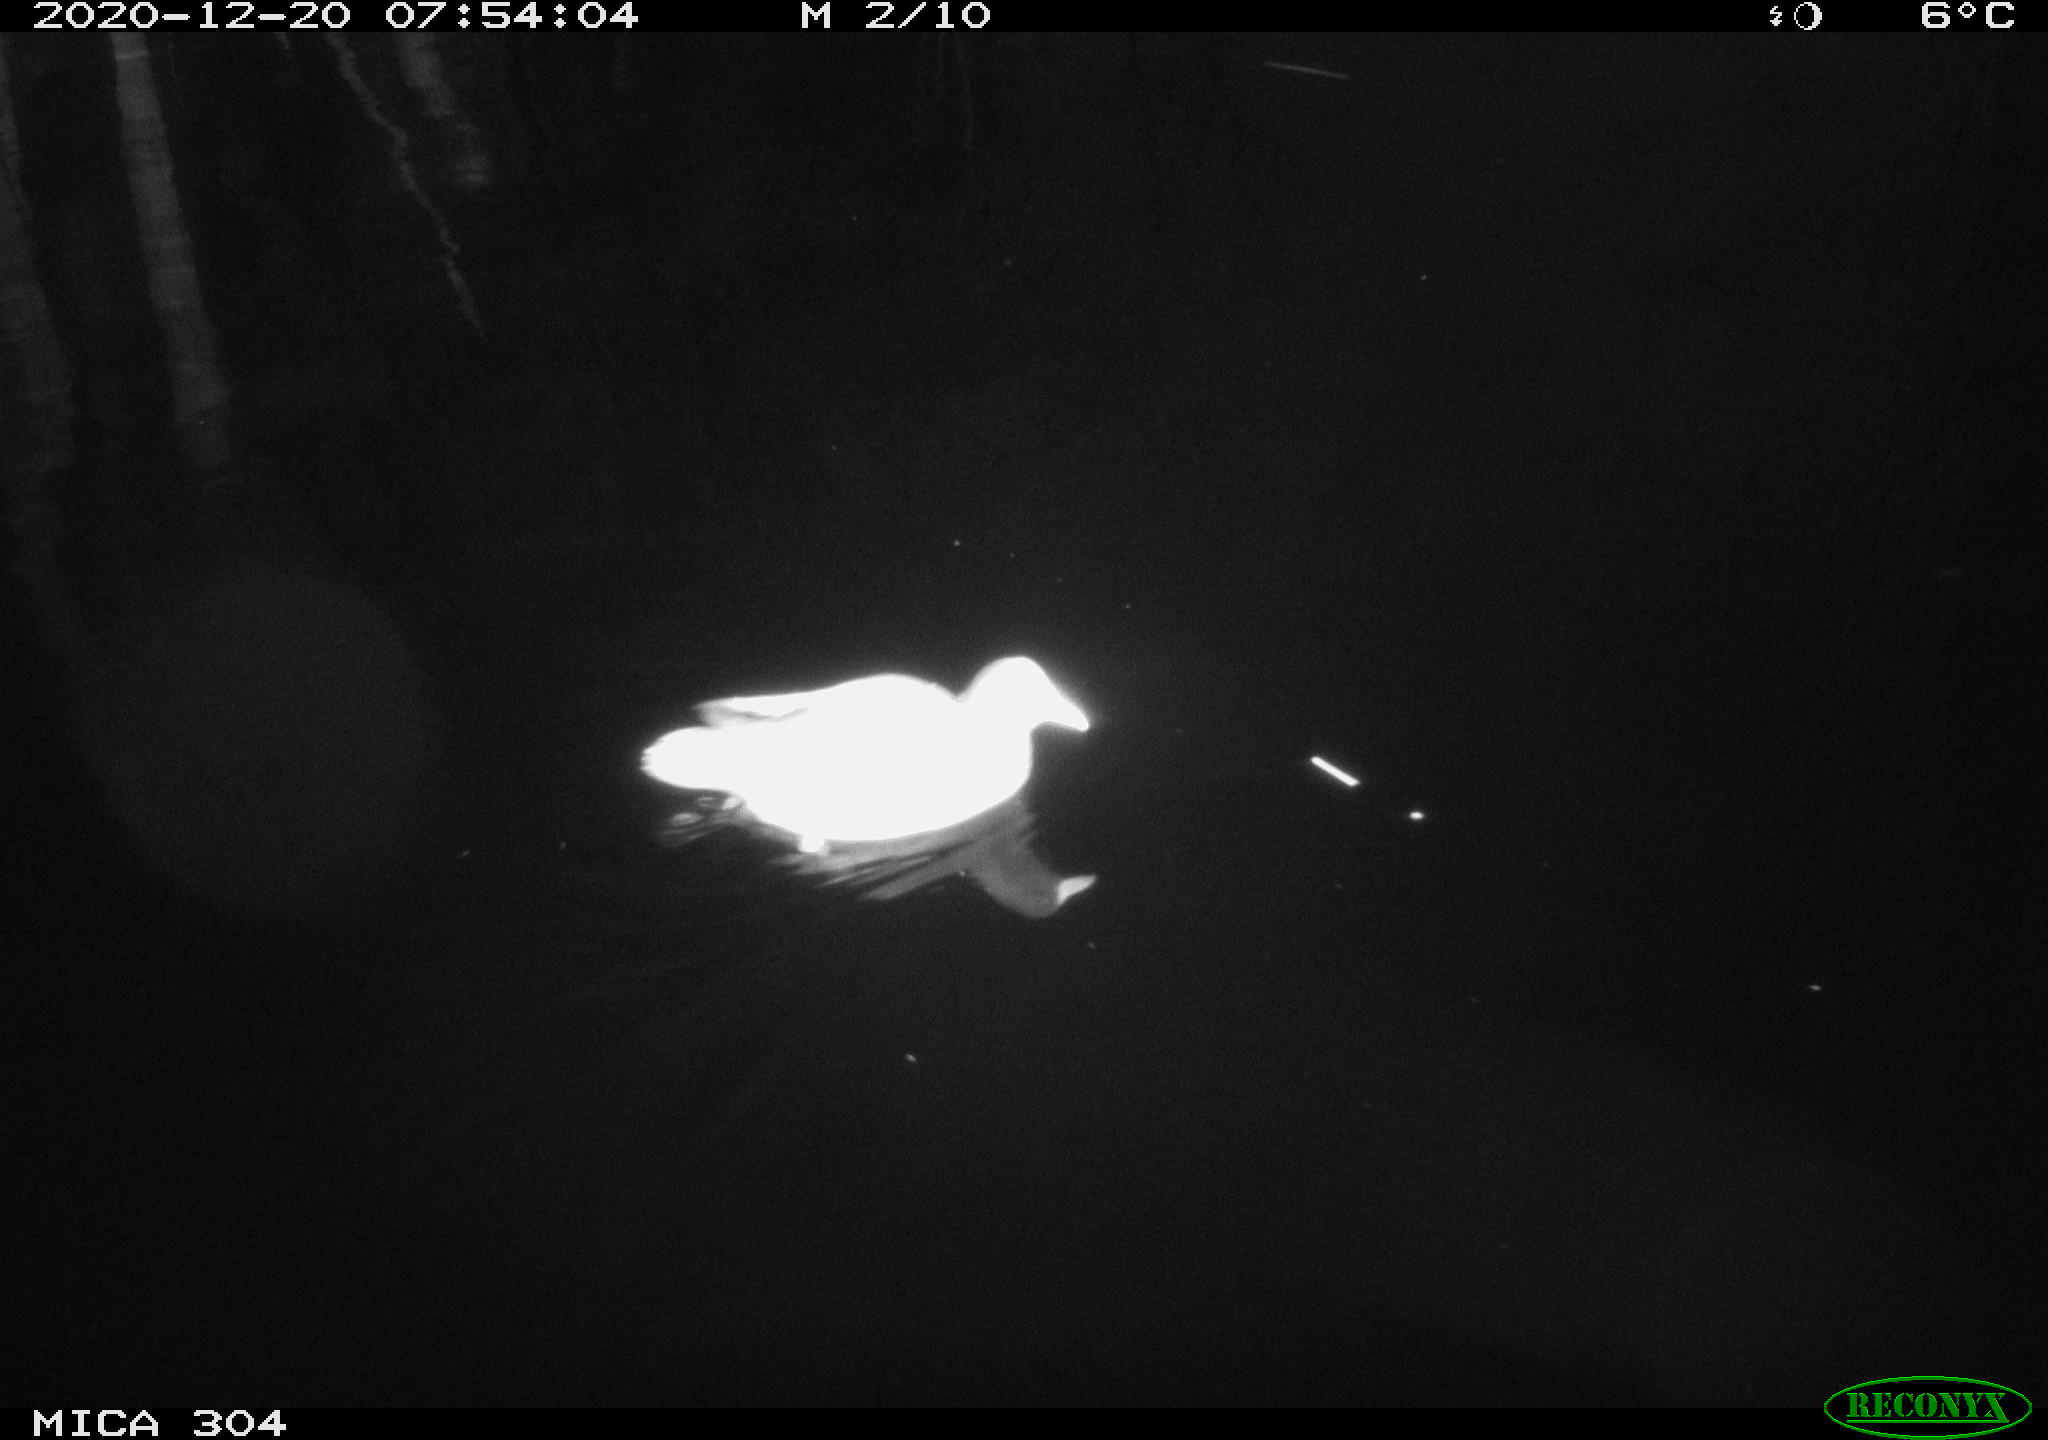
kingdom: Animalia
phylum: Chordata
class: Aves
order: Gruiformes
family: Rallidae
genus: Gallinula
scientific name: Gallinula chloropus
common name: Common moorhen
